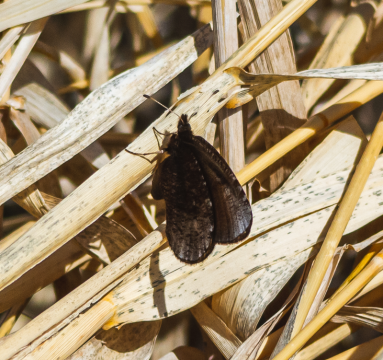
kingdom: Animalia
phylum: Arthropoda
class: Insecta
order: Lepidoptera
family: Nymphalidae
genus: Erebia
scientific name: Erebia discoidalis
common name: Red-disked Alpine
